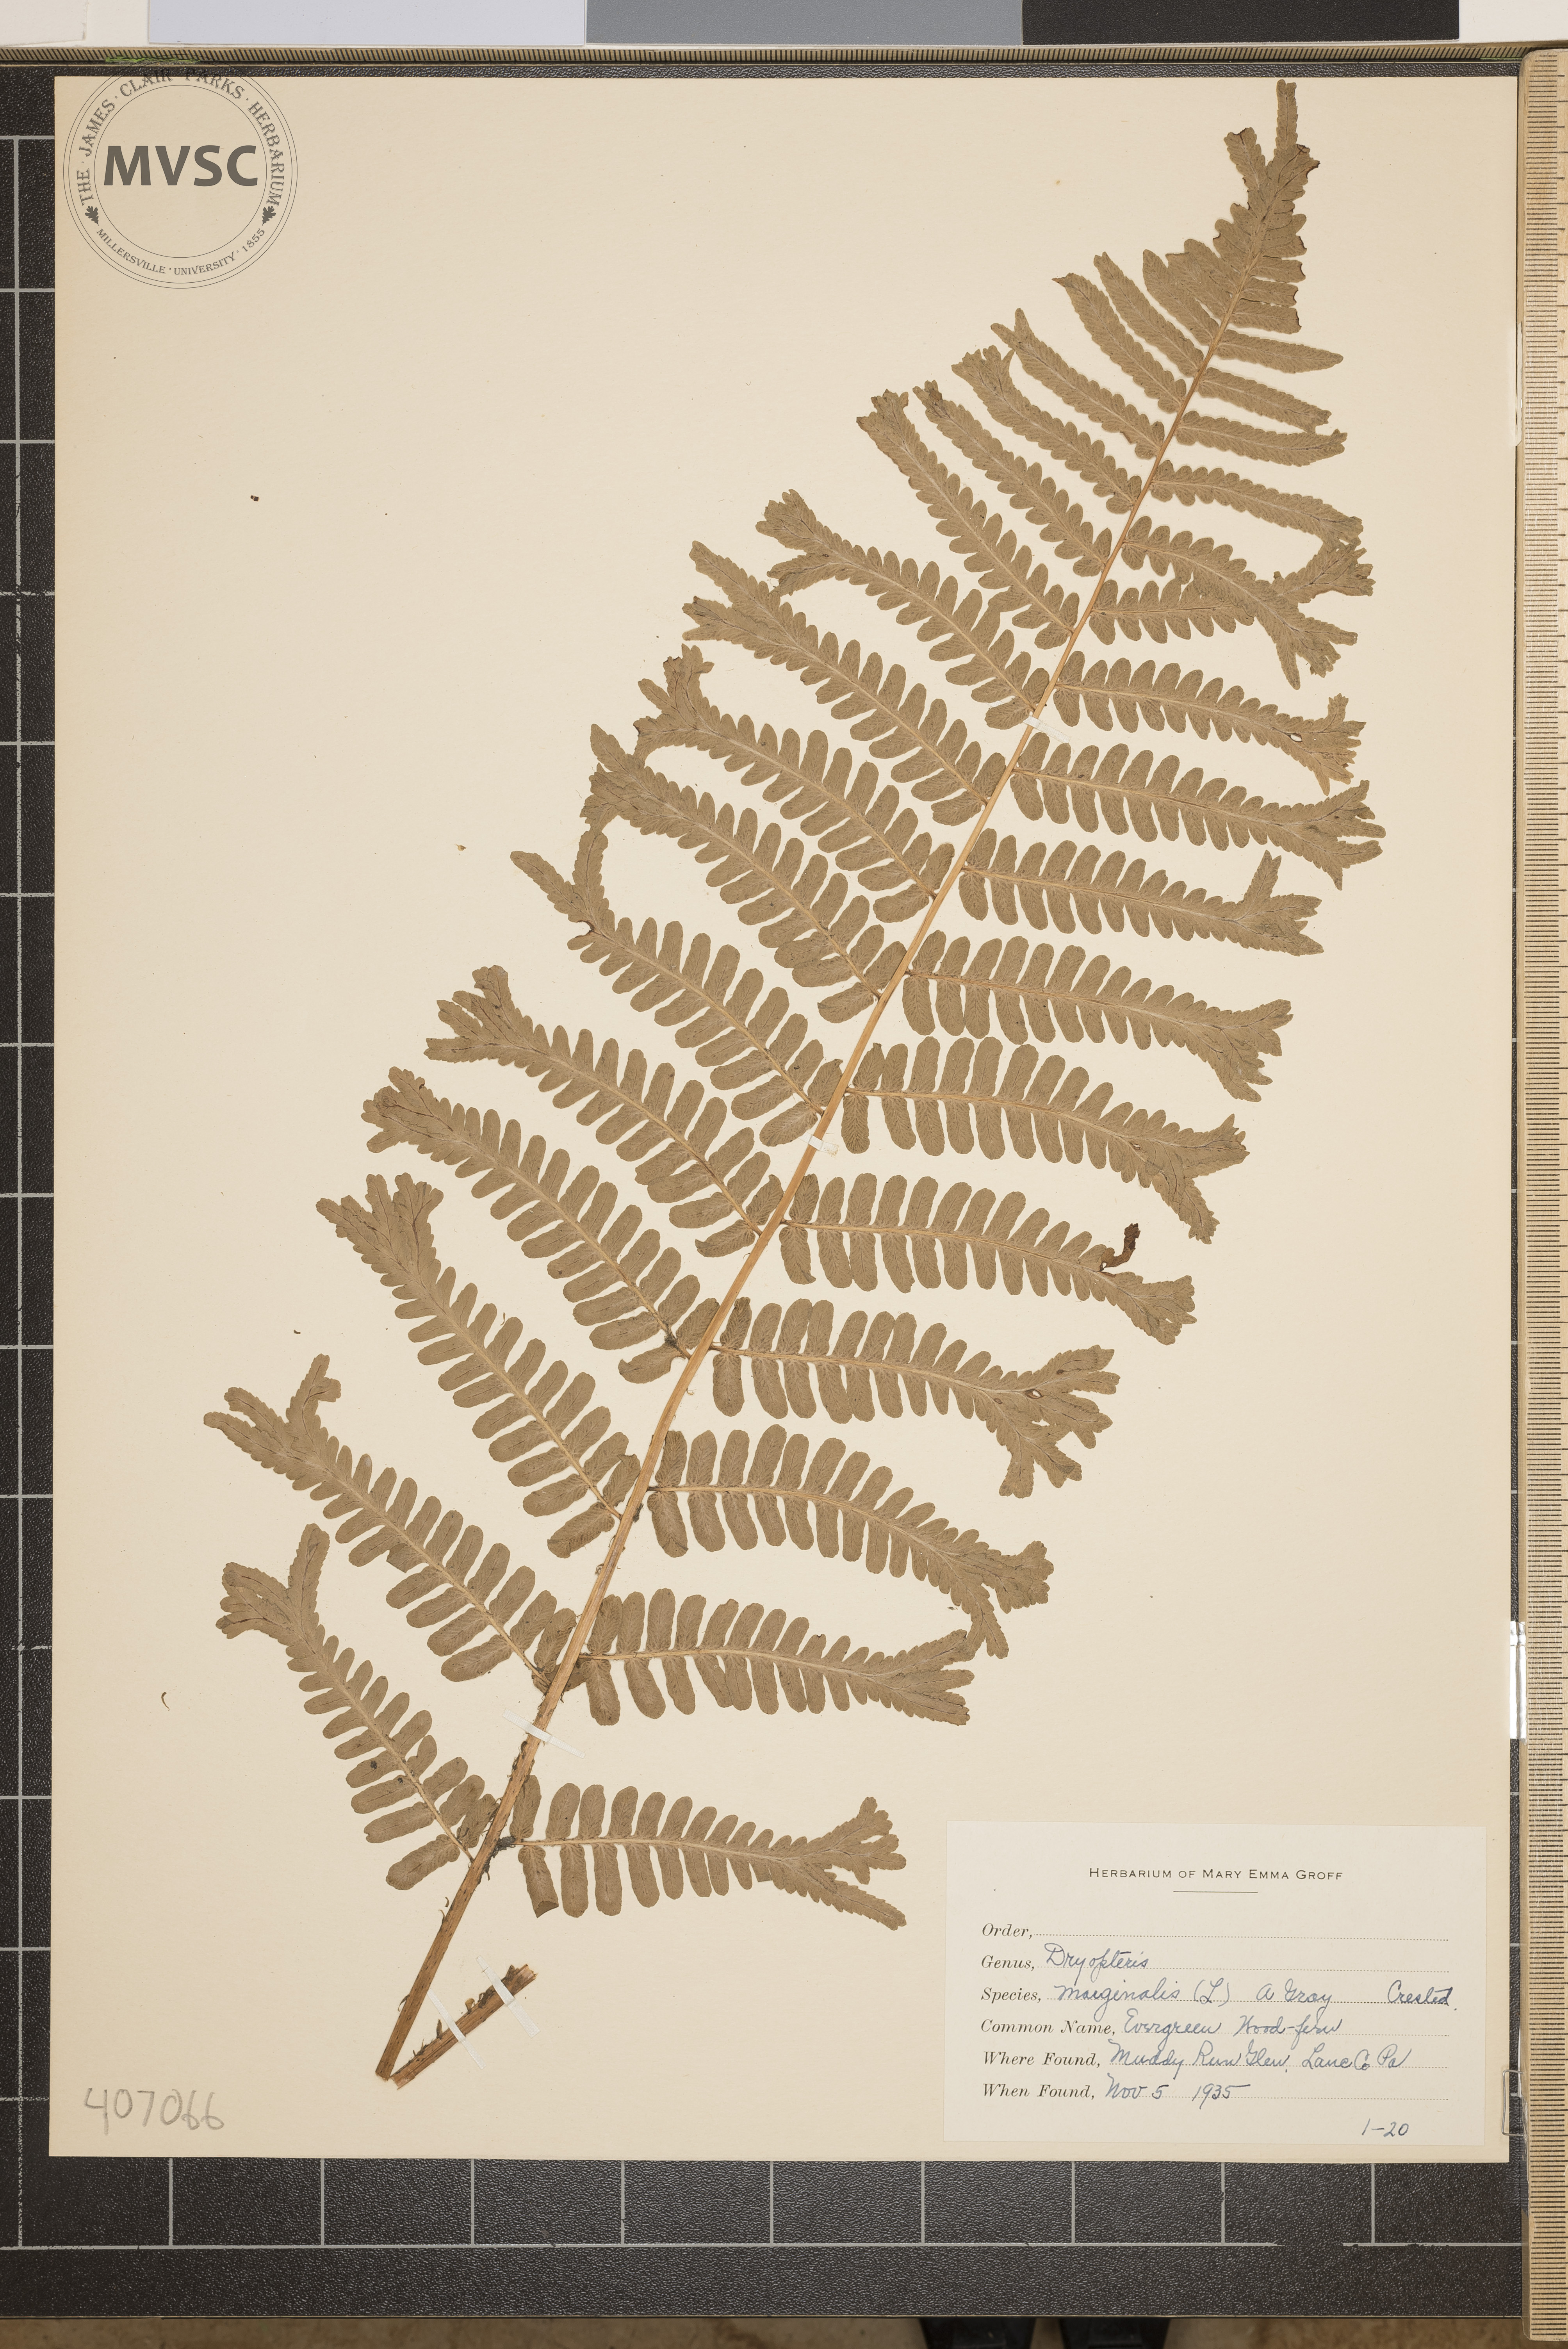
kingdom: Plantae
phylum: Tracheophyta
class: Polypodiopsida
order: Polypodiales
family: Dryopteridaceae
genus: Dryopteris
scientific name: Dryopteris marginalis
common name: Evergreen Wood Fern
